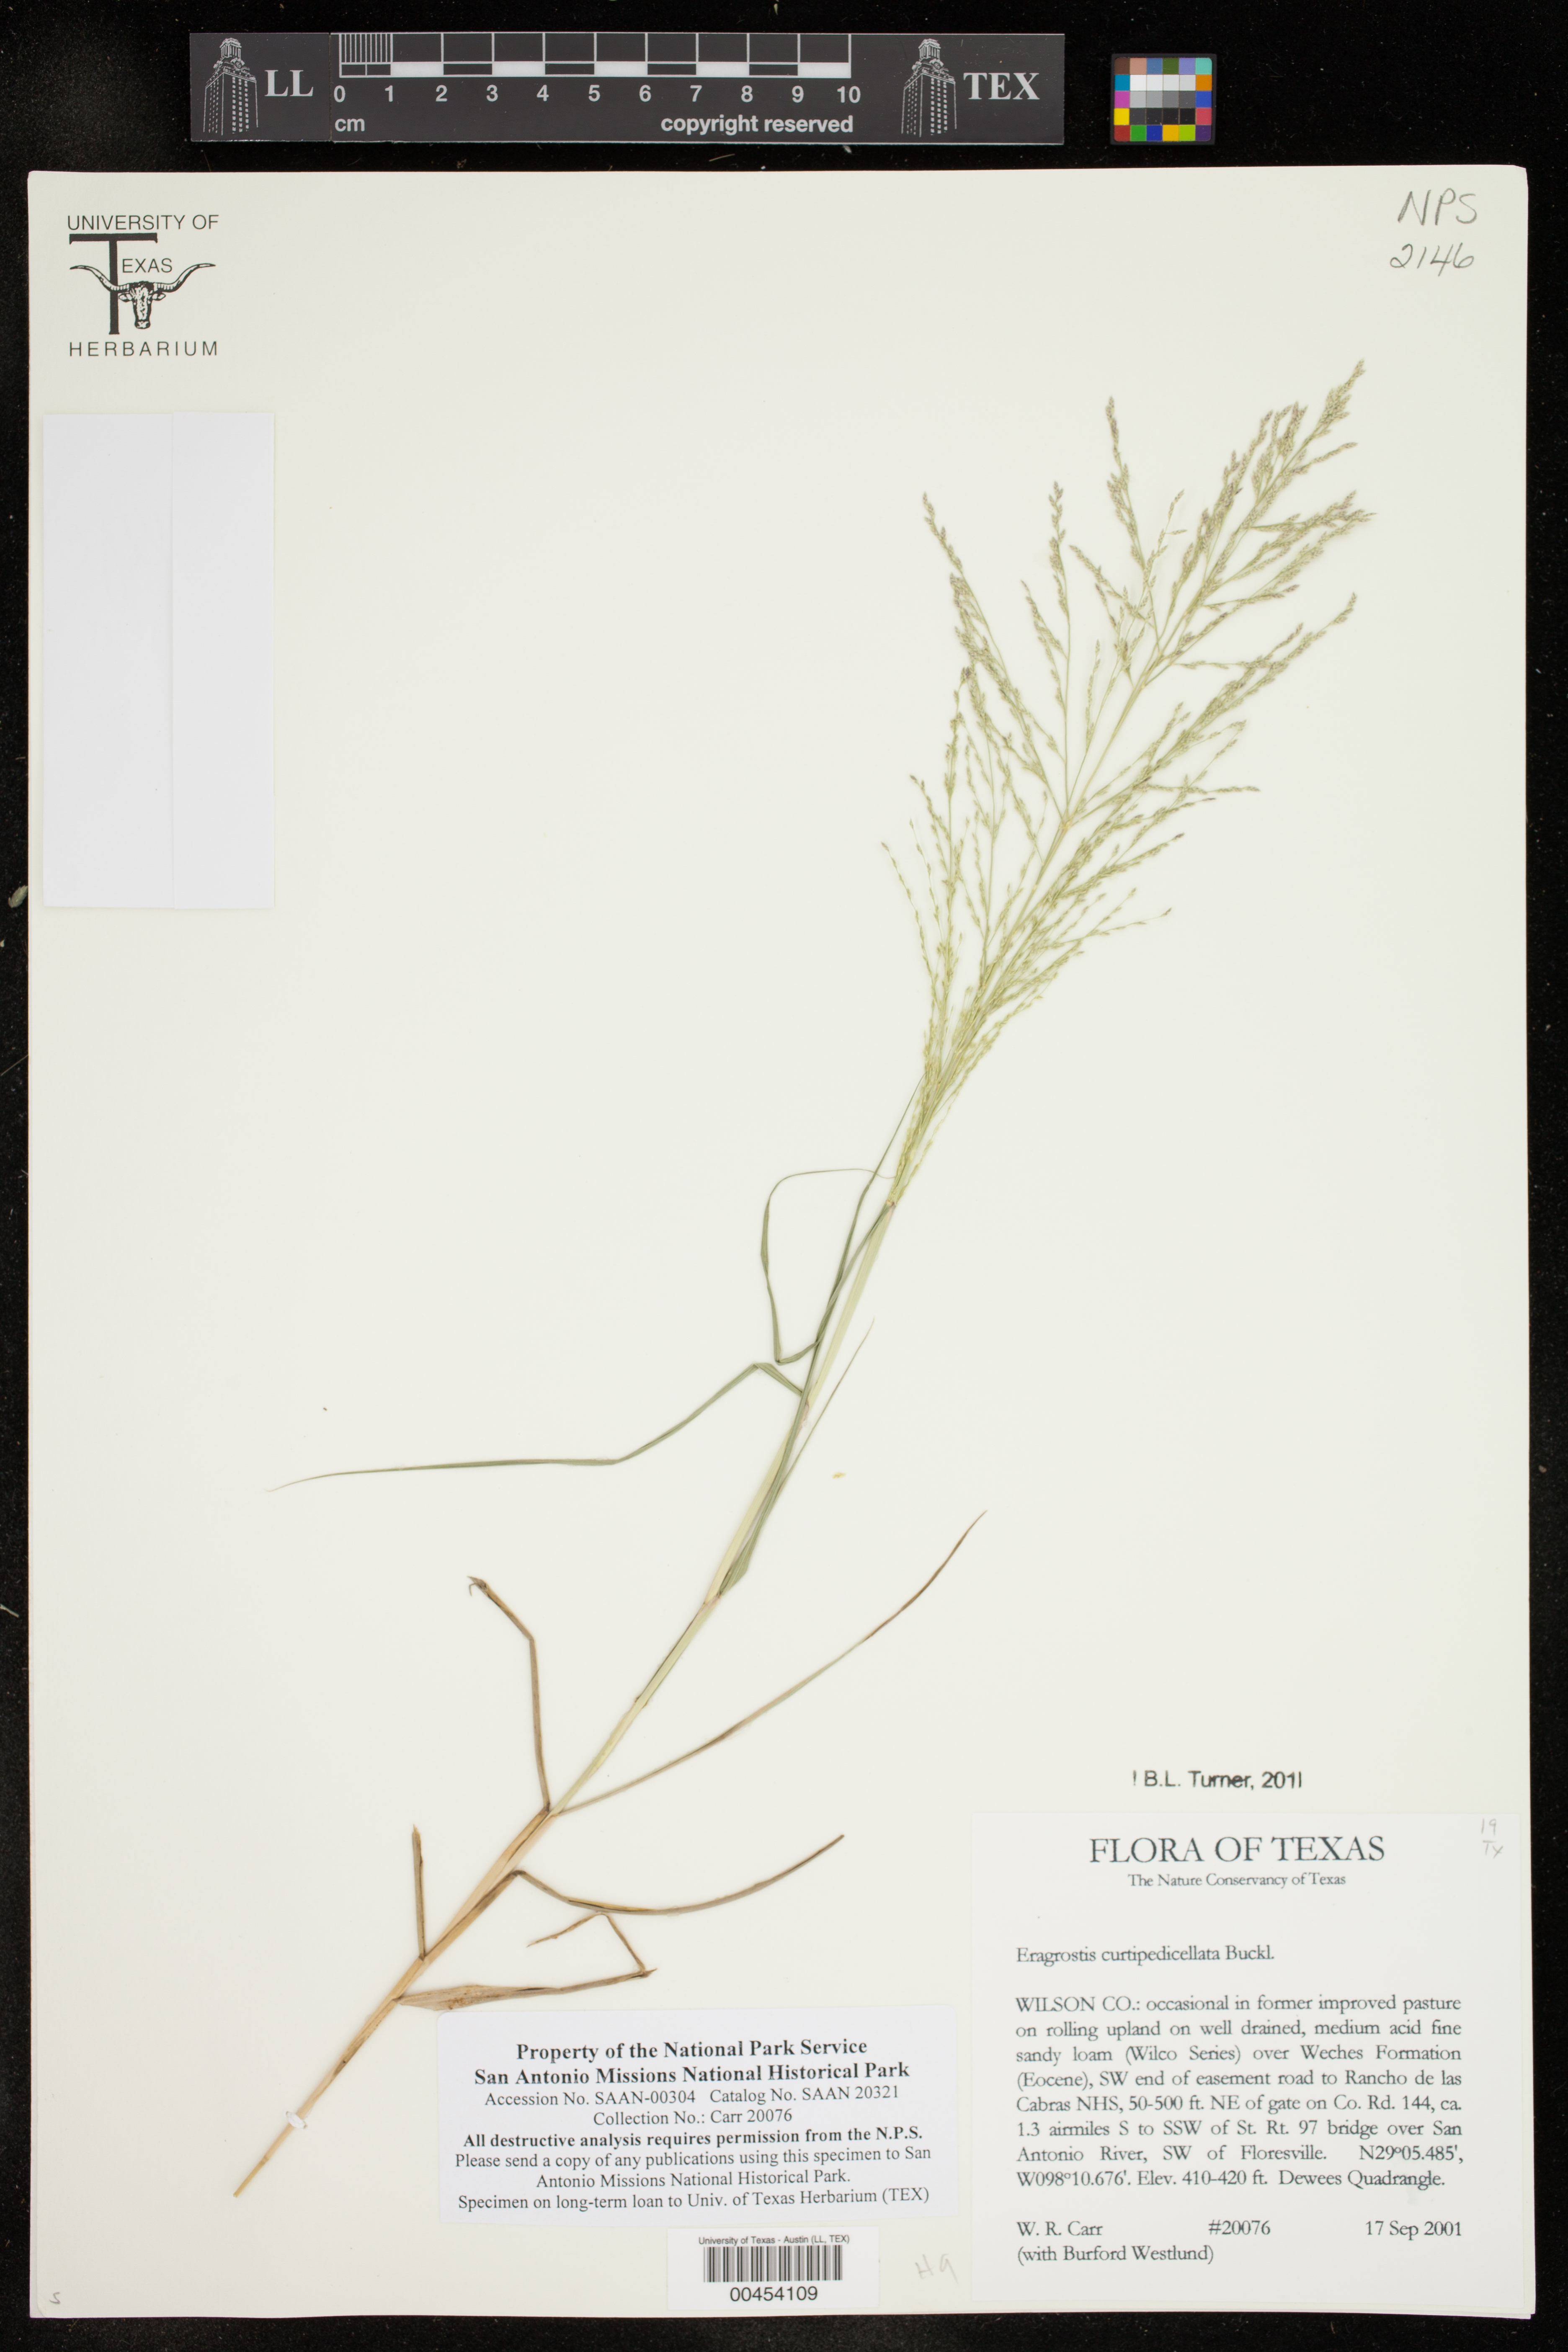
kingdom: Plantae
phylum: Tracheophyta
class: Liliopsida
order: Poales
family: Poaceae
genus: Eragrostis
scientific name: Eragrostis curtipedicellata
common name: Gummy love grass
